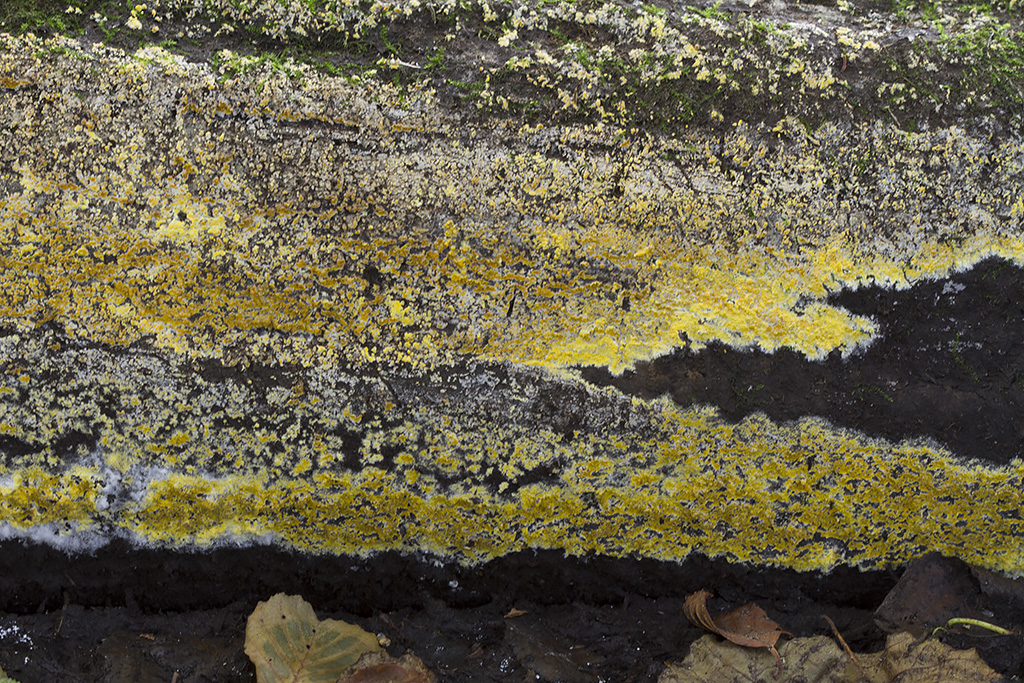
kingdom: Fungi
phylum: Basidiomycota
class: Agaricomycetes
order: Polyporales
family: Meruliaceae
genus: Phlebiodontia
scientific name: Phlebiodontia subochracea
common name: svovl-åresvamp
